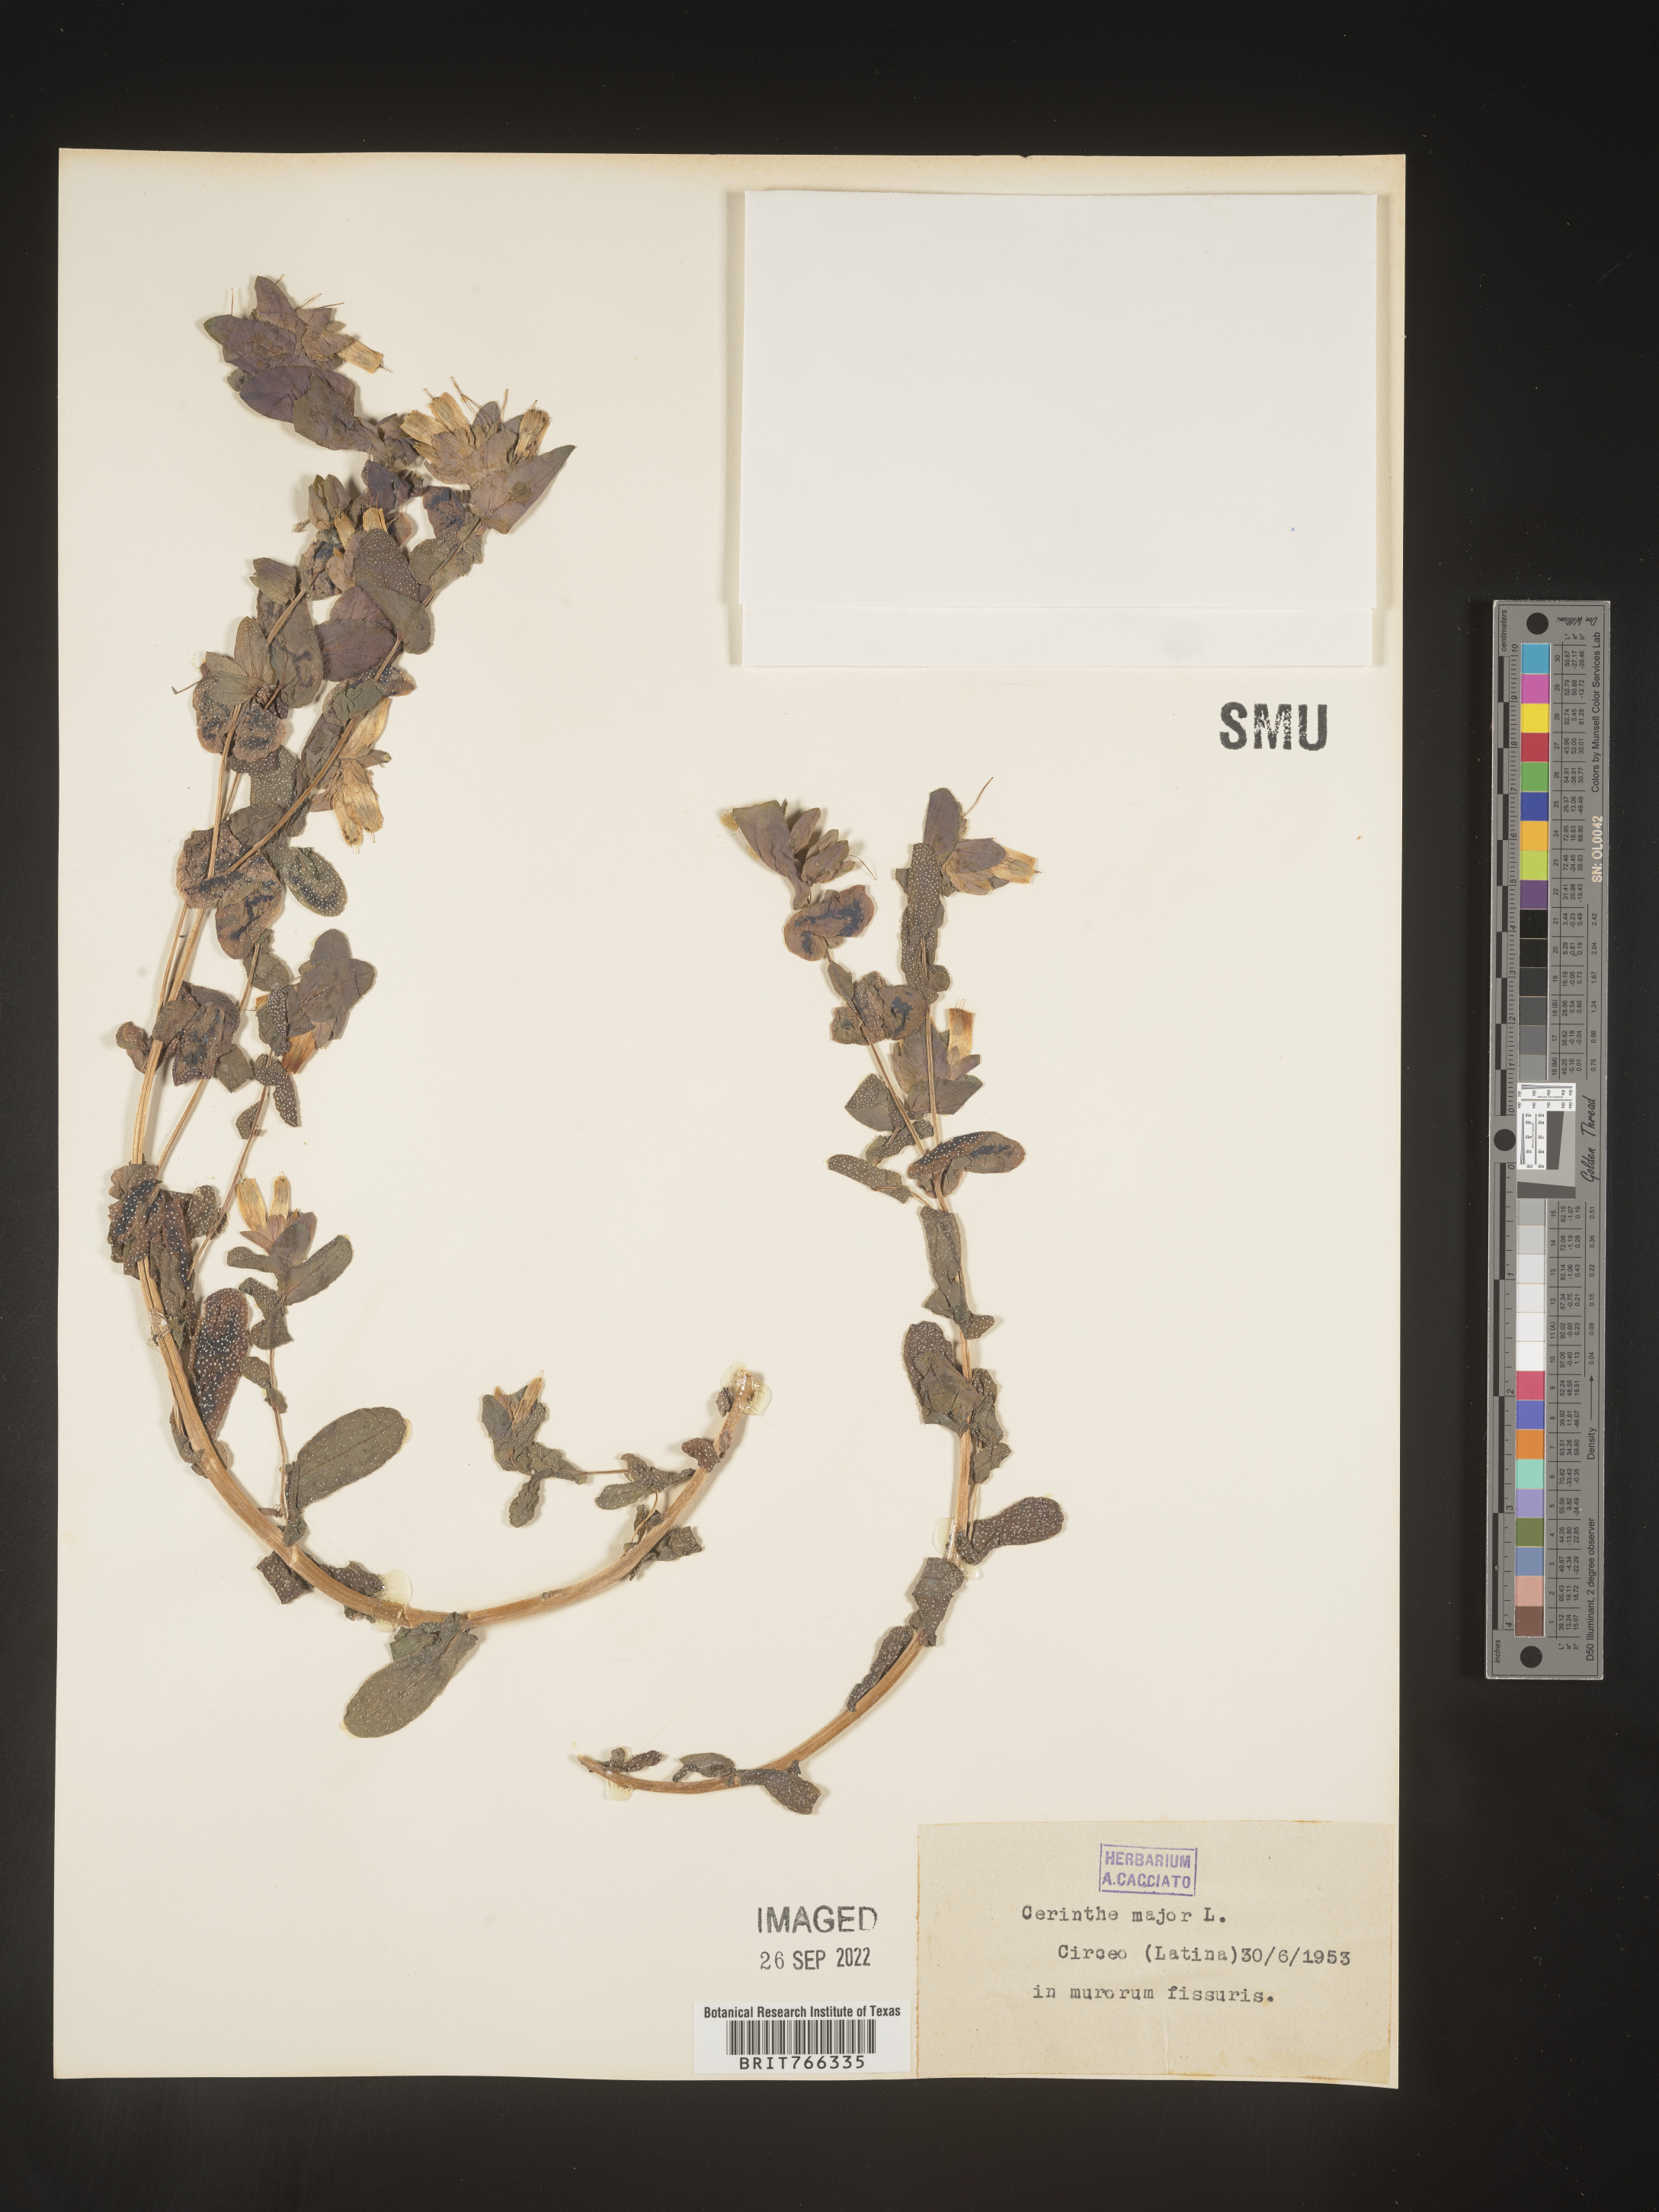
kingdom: Plantae
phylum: Tracheophyta
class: Magnoliopsida
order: Boraginales
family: Boraginaceae
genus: Cerinthe
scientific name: Cerinthe
